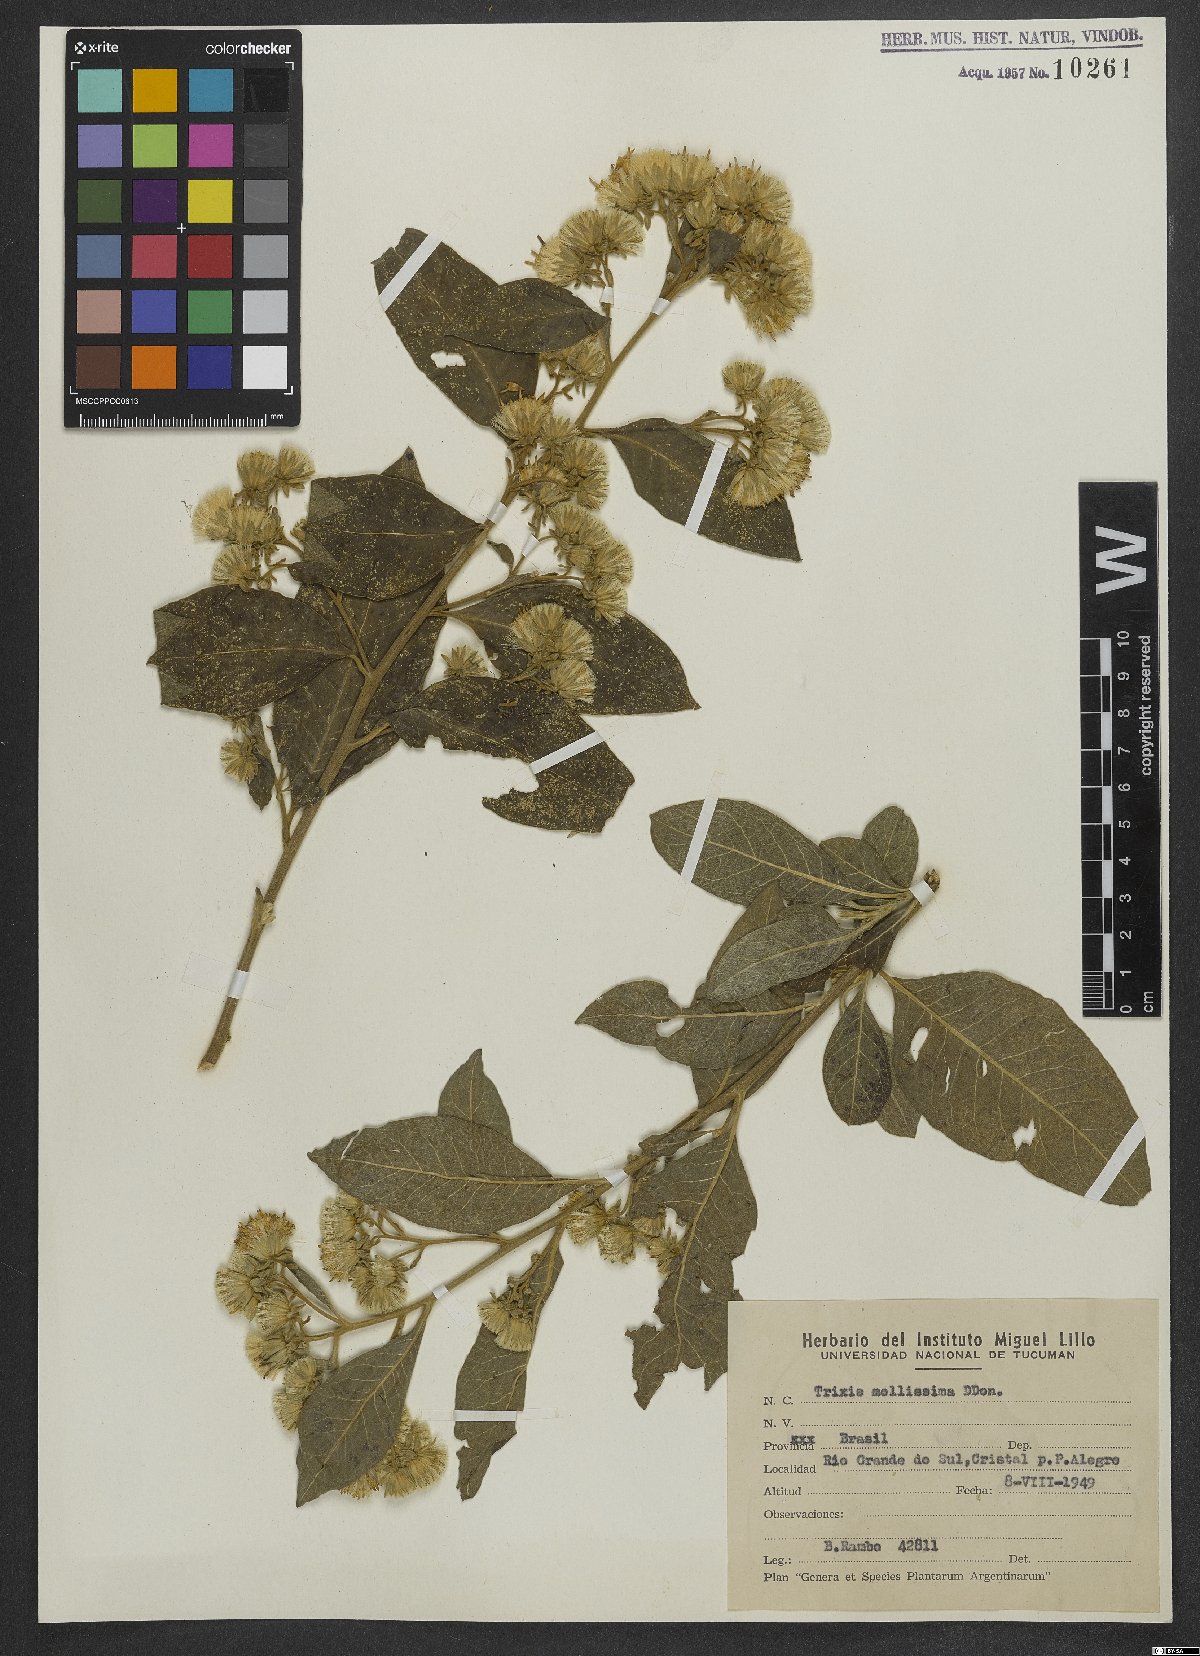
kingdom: Plantae
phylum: Tracheophyta
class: Magnoliopsida
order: Asterales
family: Asteraceae
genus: Trixis
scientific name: Trixis praestans
